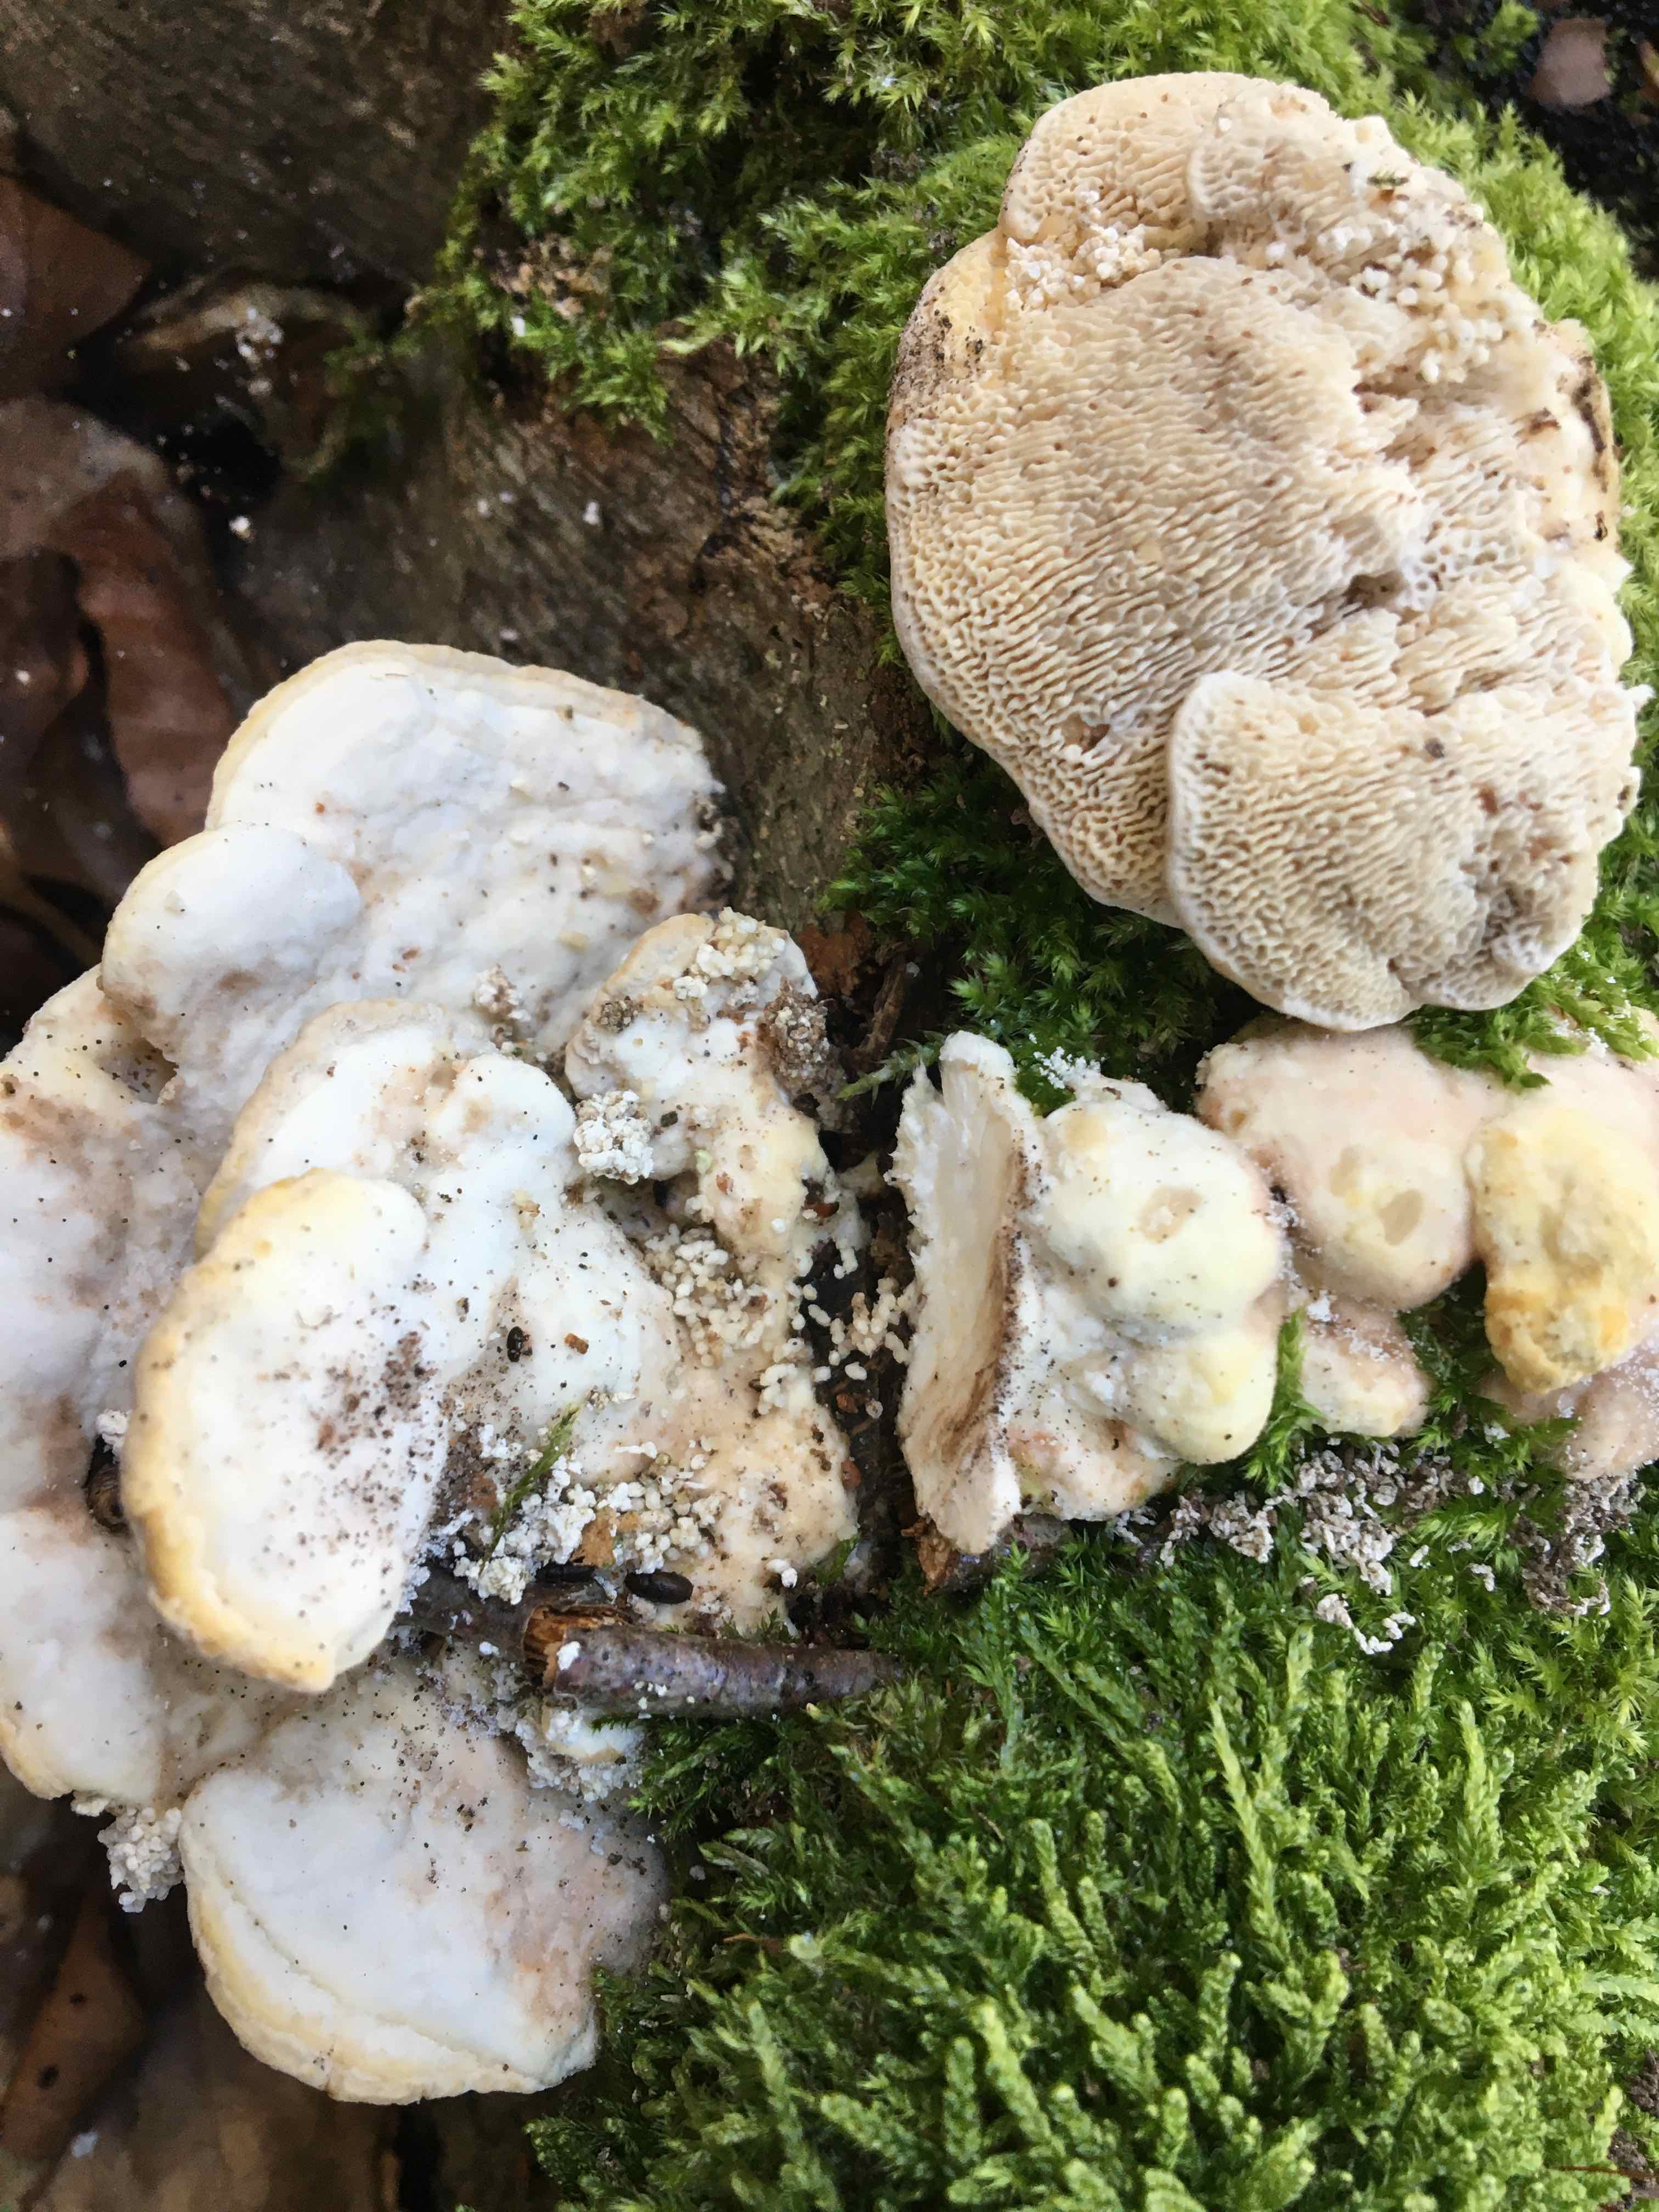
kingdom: Fungi
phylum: Basidiomycota
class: Agaricomycetes
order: Polyporales
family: Polyporaceae
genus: Trametes
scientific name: Trametes gibbosa
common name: puklet læderporesvamp
